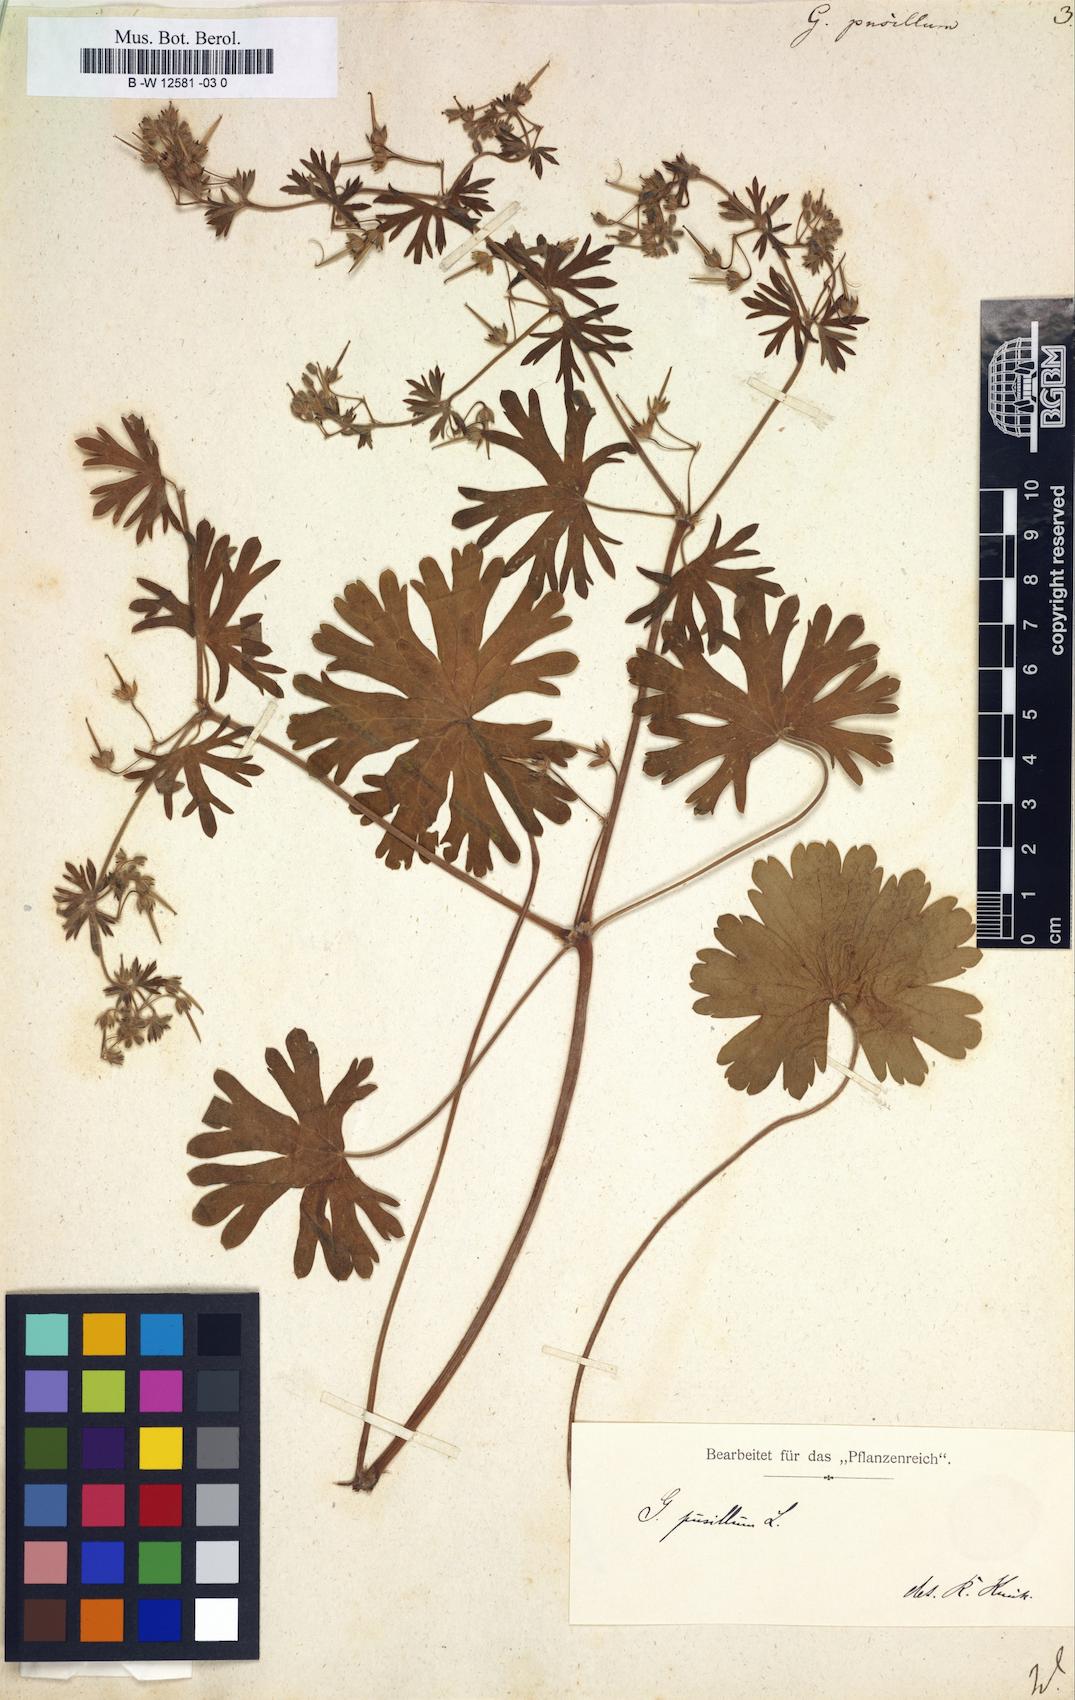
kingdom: Plantae
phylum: Tracheophyta
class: Magnoliopsida
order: Geraniales
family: Geraniaceae
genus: Geranium
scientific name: Geranium pusillum
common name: Small geranium
